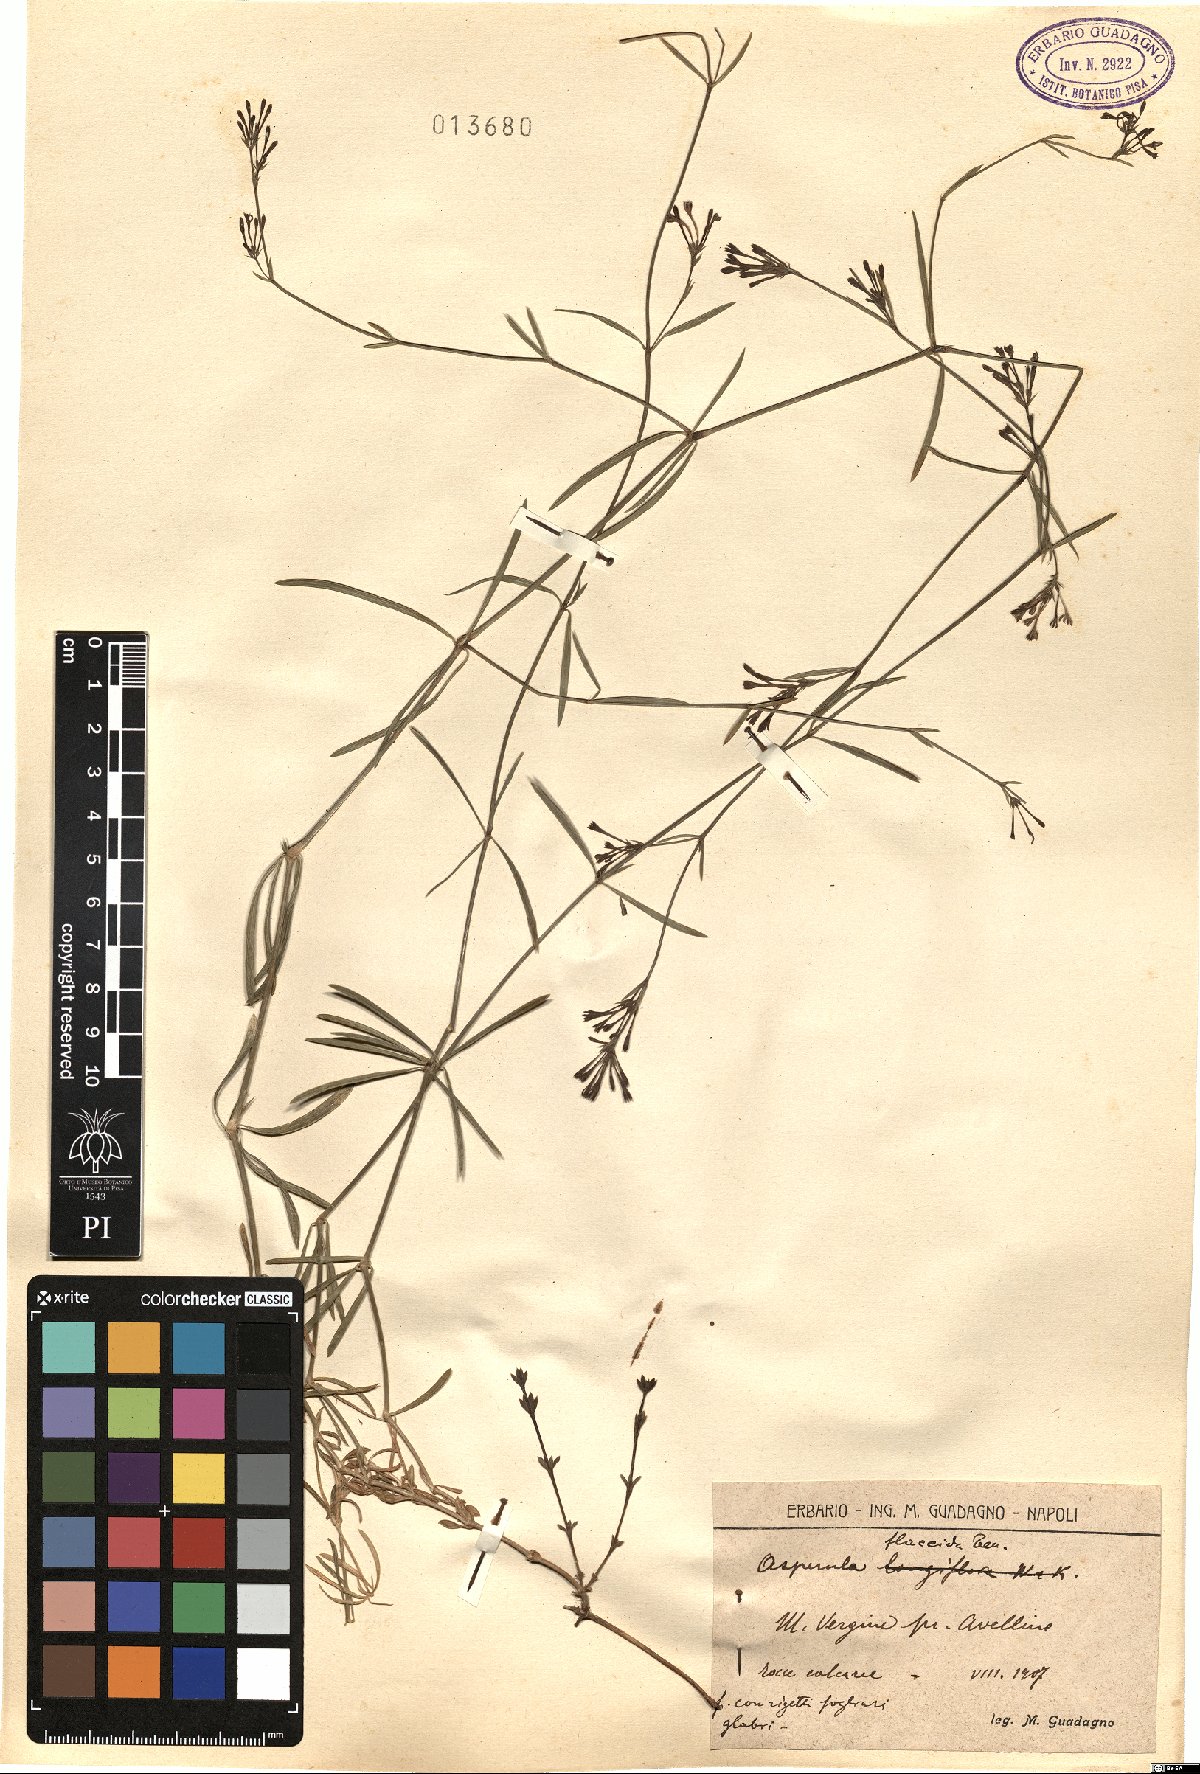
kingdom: Plantae
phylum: Tracheophyta
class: Magnoliopsida
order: Gentianales
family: Rubiaceae
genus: Cynanchica
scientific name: Cynanchica aristata
